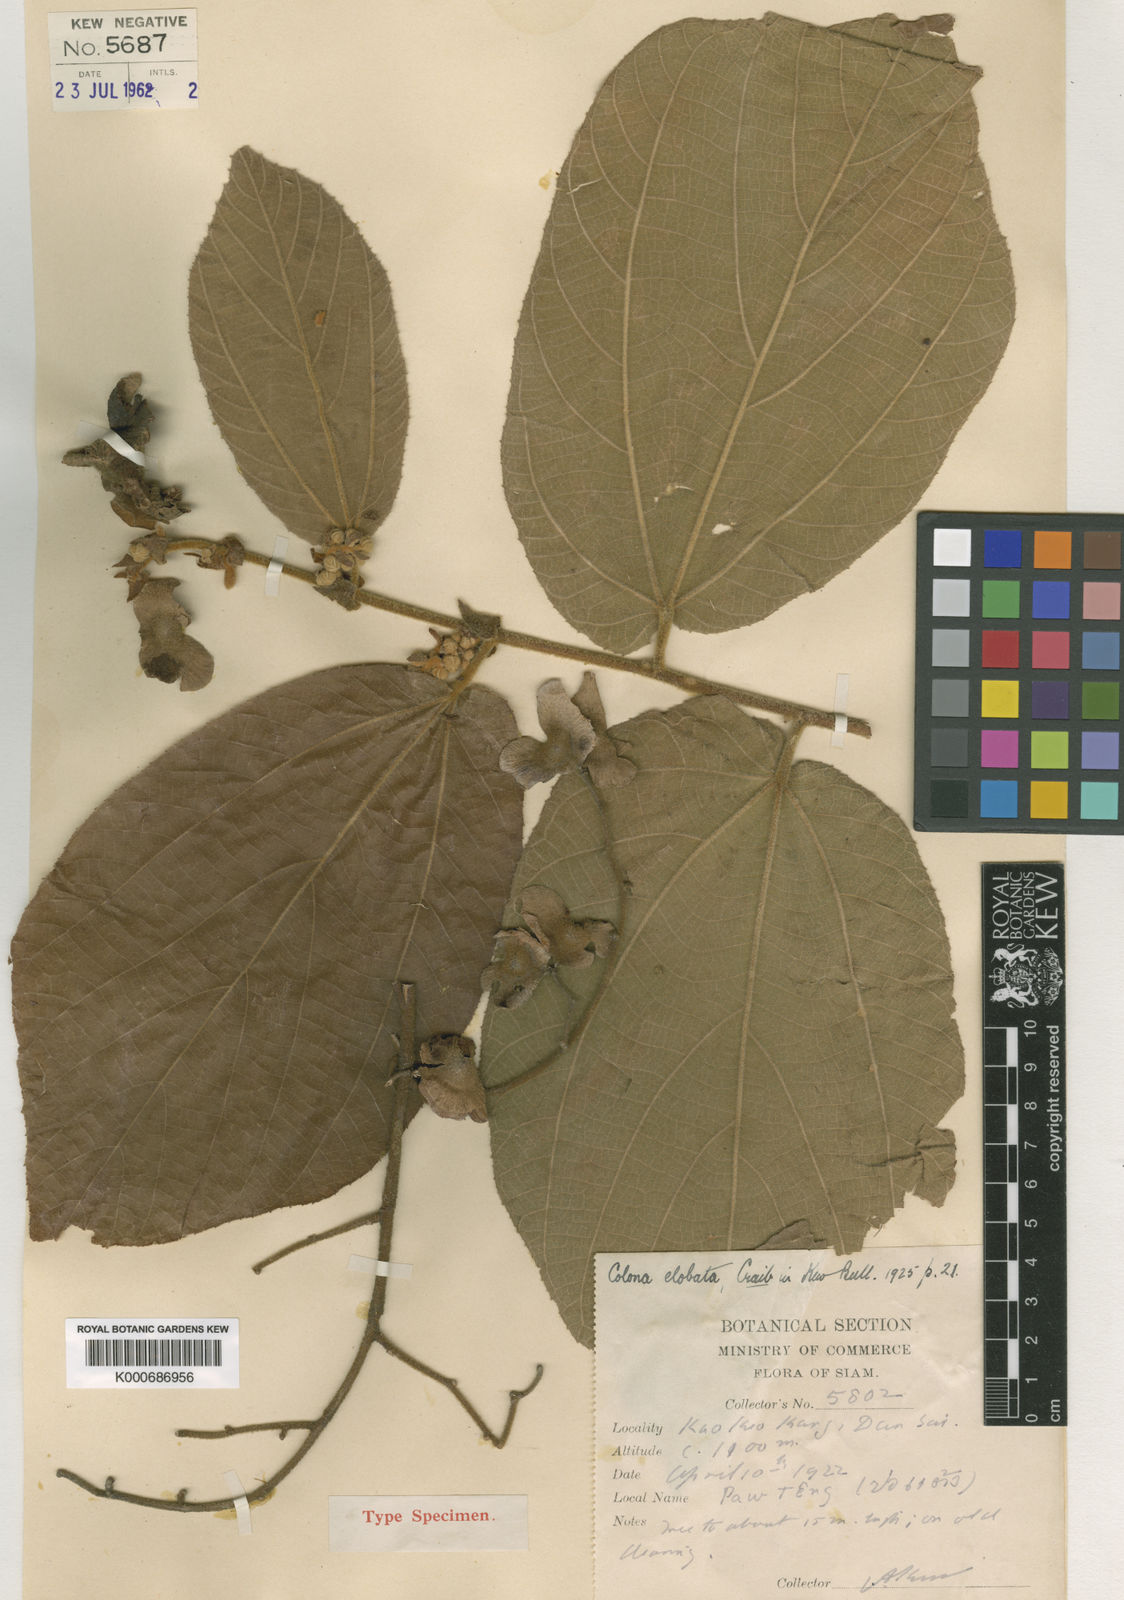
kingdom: Plantae
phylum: Tracheophyta
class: Magnoliopsida
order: Malvales
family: Malvaceae
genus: Colona
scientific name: Colona elobata
